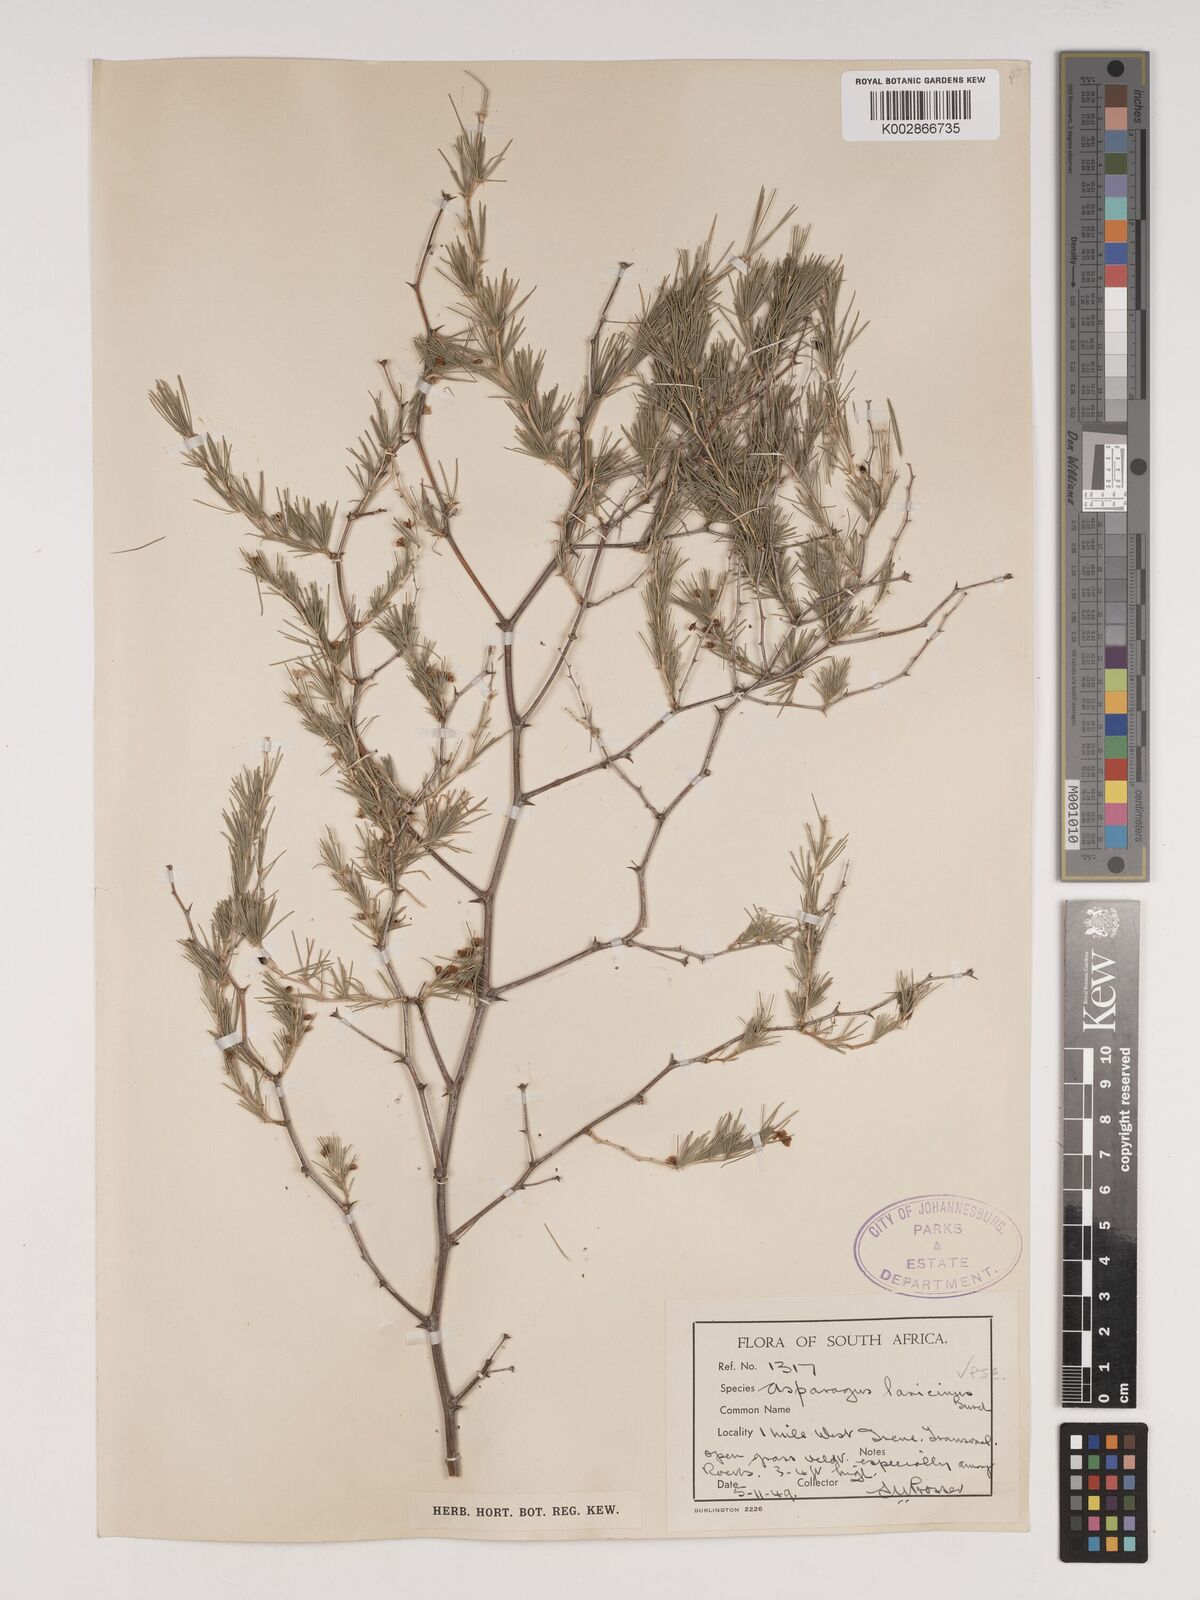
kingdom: Plantae
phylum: Tracheophyta
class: Liliopsida
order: Asparagales
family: Asparagaceae
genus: Asparagus
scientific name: Asparagus laricinus
